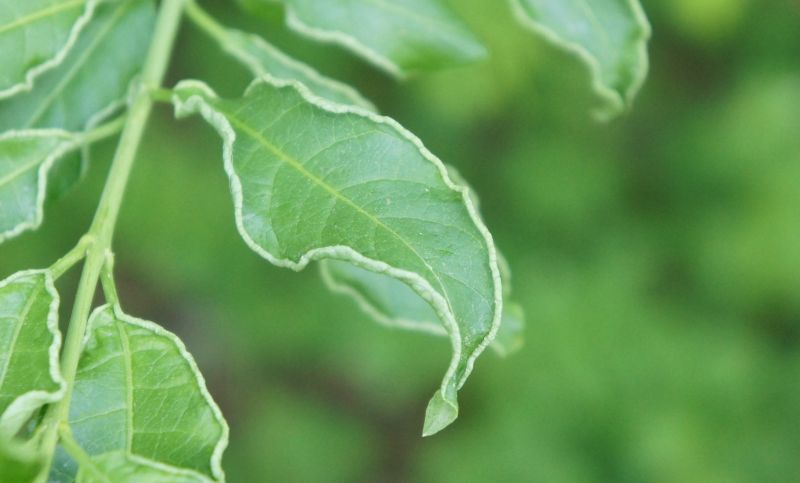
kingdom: Animalia
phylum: Arthropoda
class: Arachnida
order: Trombidiformes
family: Eriophyidae
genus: Stenacis
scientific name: Stenacis evonymi
